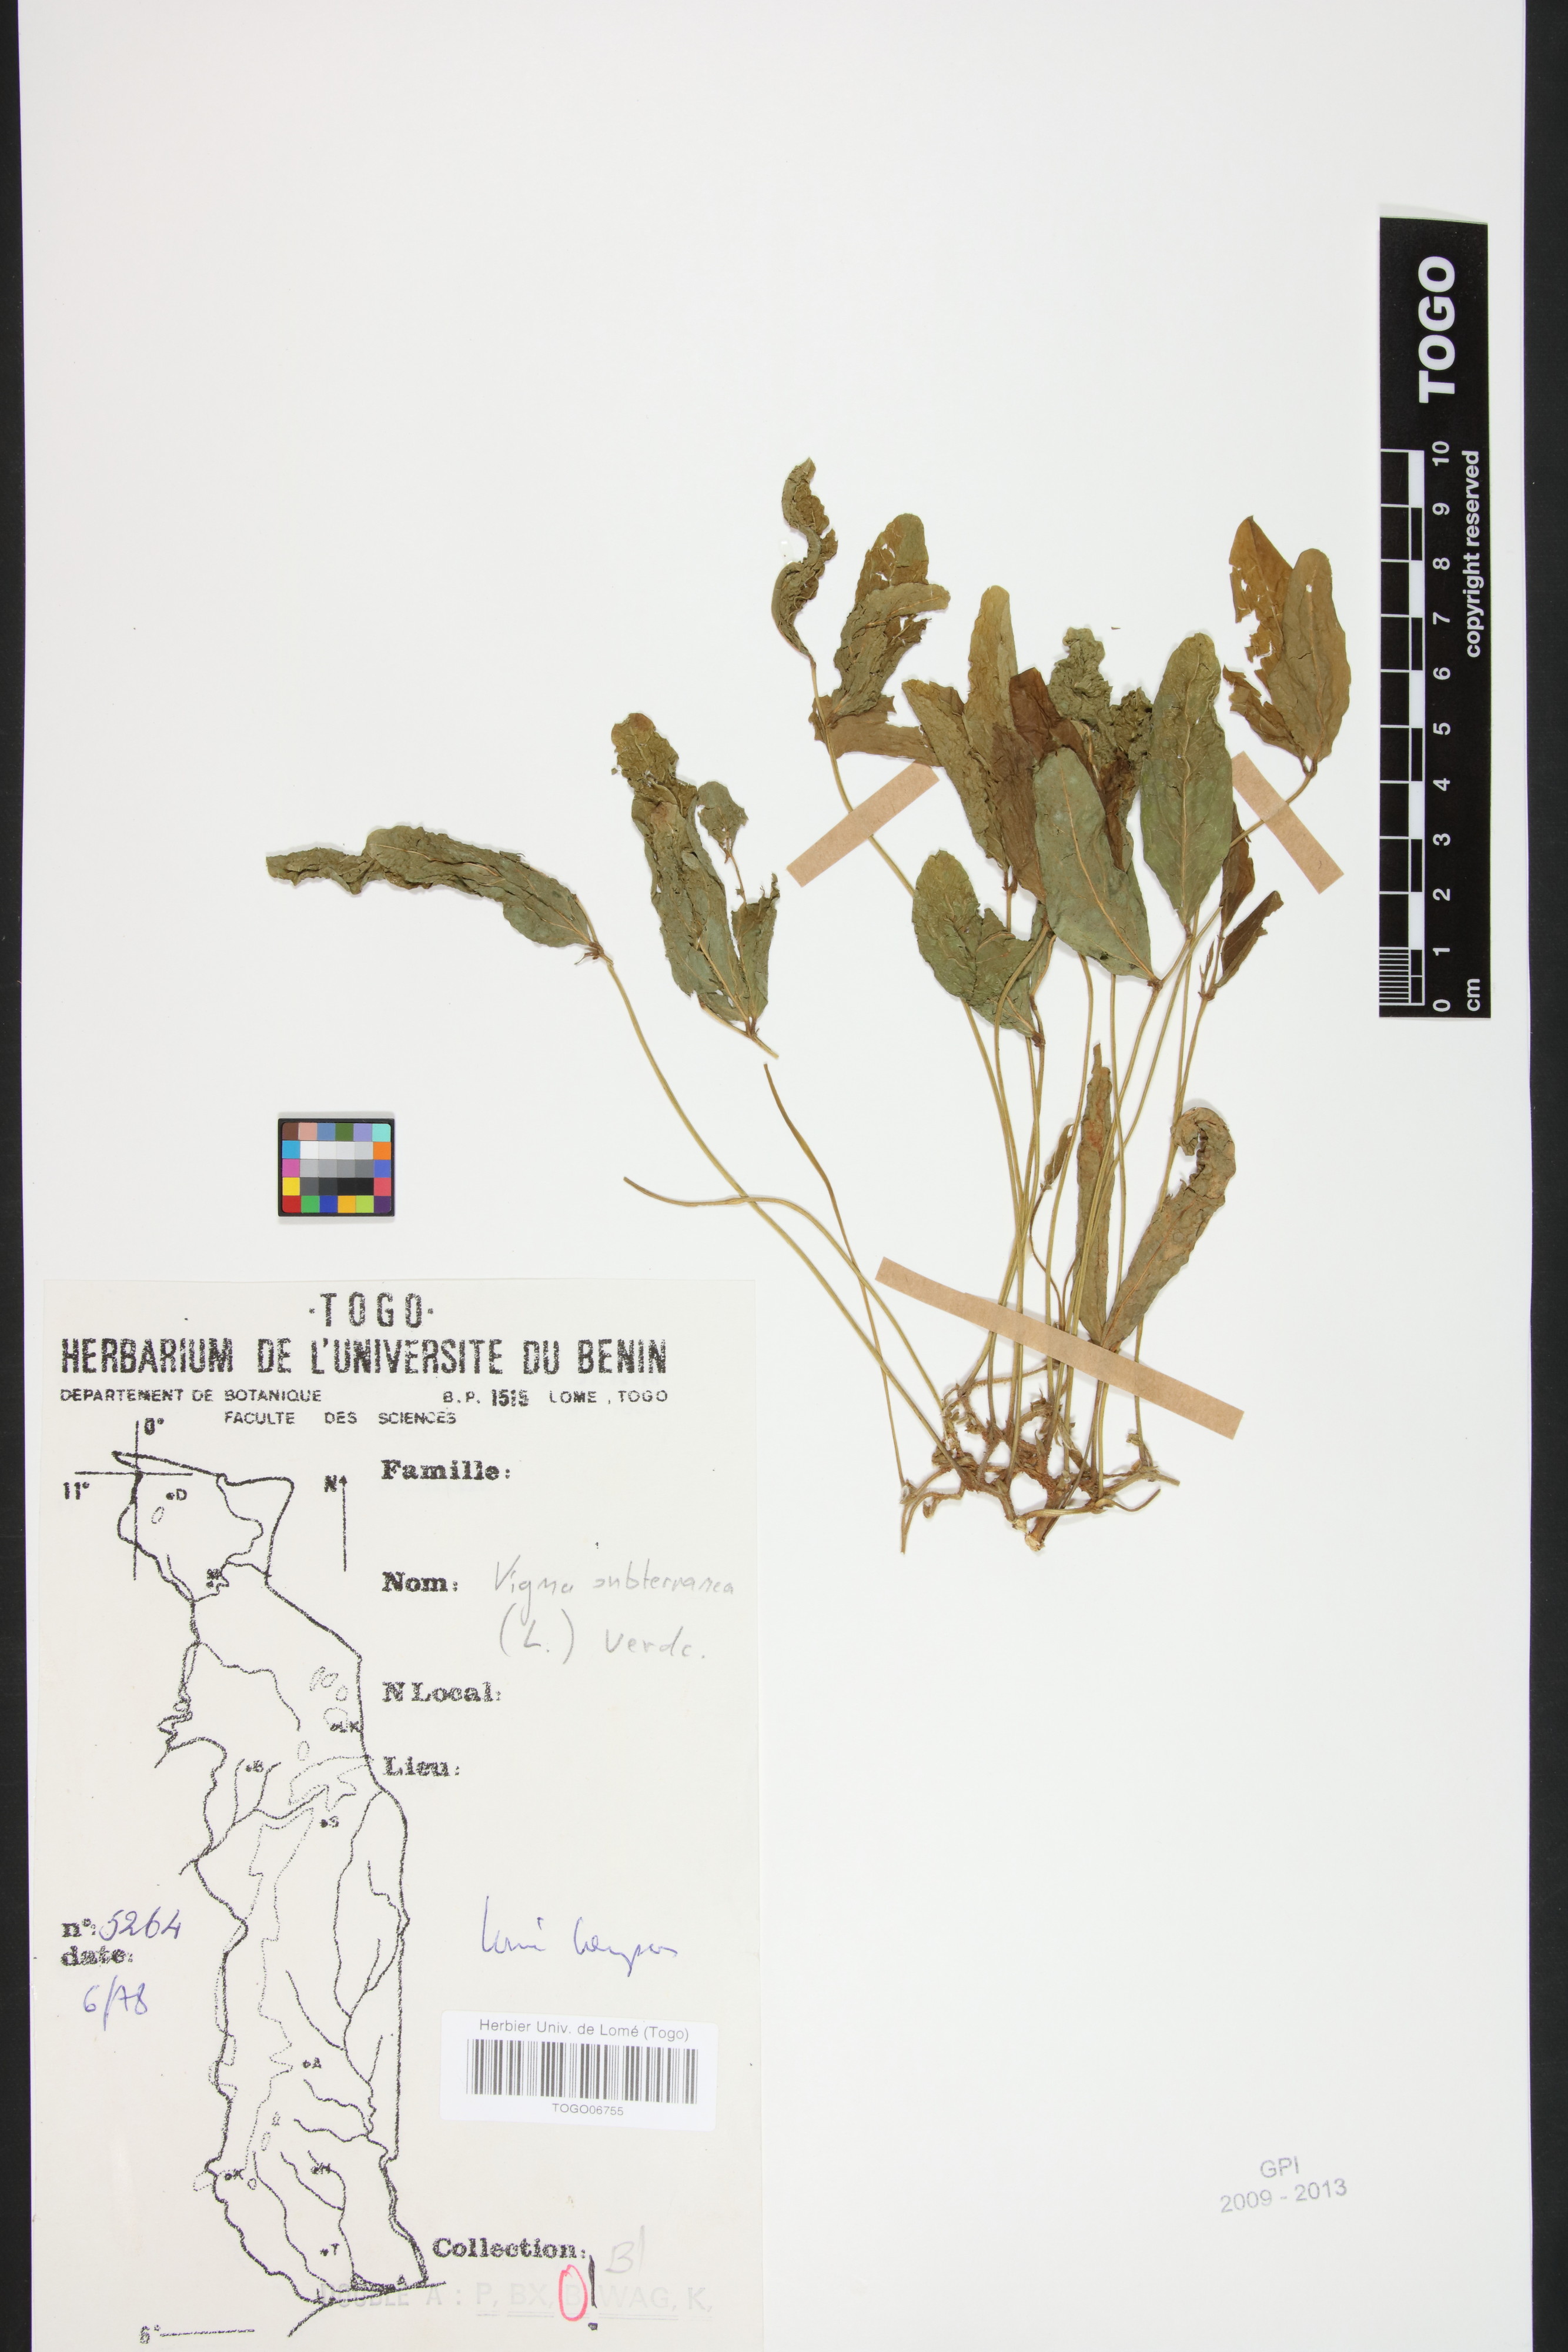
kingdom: Plantae
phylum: Tracheophyta
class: Magnoliopsida
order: Fabales
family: Fabaceae
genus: Vigna
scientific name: Vigna subterranea
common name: Bambara groundnut
